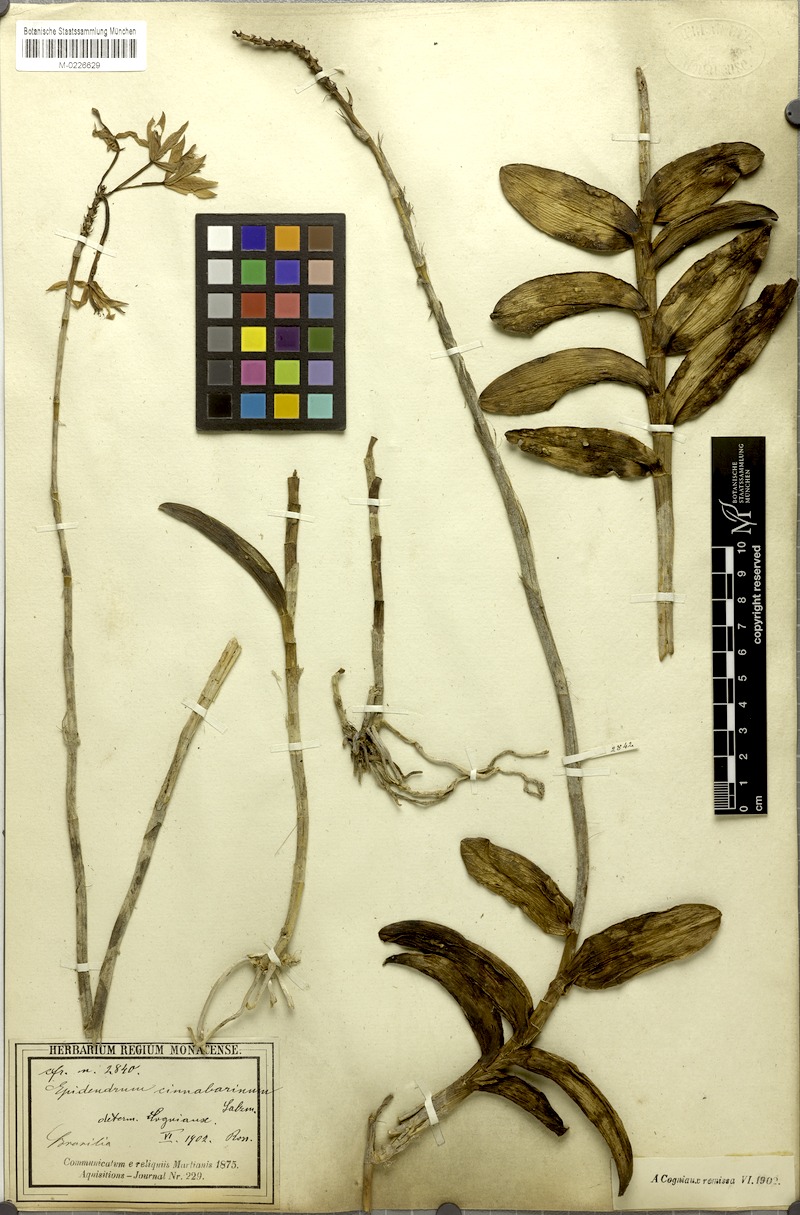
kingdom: Plantae
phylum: Tracheophyta
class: Liliopsida
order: Asparagales
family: Orchidaceae
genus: Epidendrum
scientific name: Epidendrum cinnabarinum
